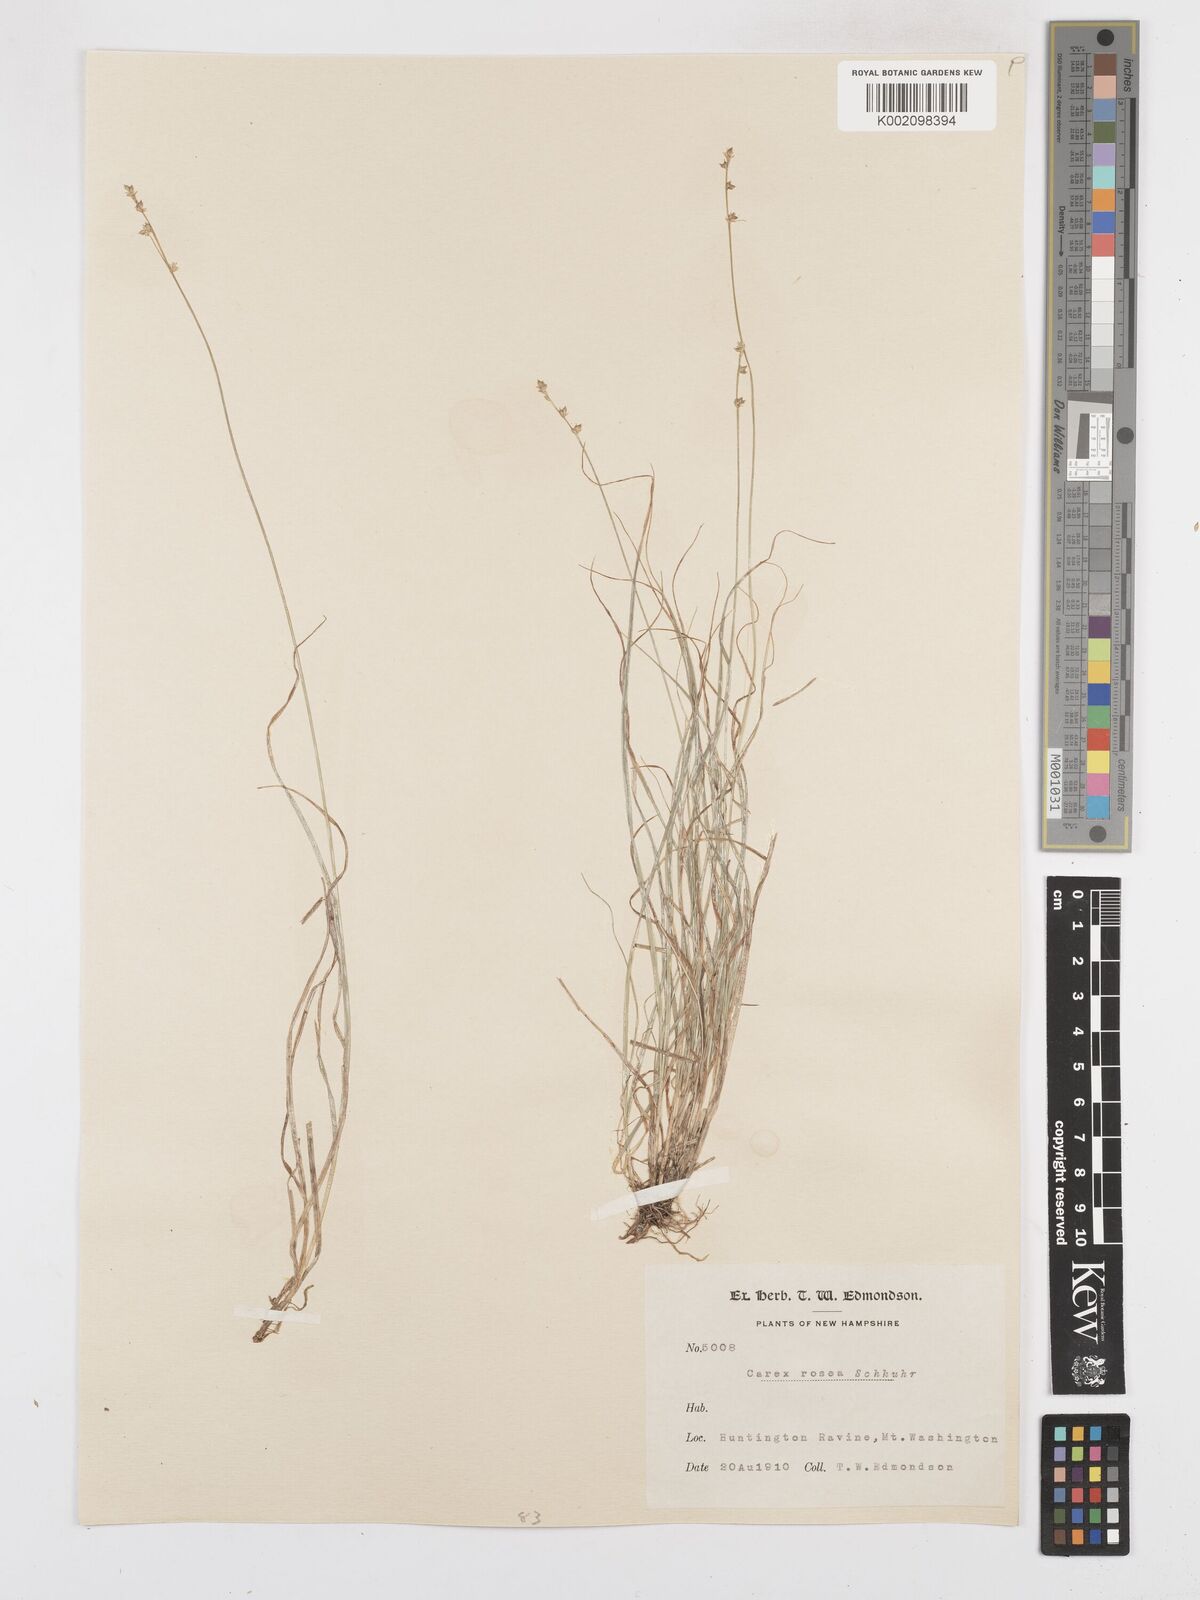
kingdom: Plantae
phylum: Tracheophyta
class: Liliopsida
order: Poales
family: Cyperaceae
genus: Carex
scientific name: Carex rosea
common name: Curly-styled wood sedge
